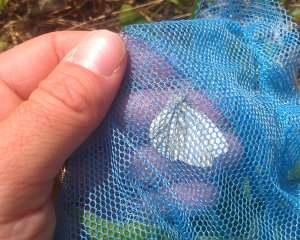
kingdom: Animalia
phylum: Arthropoda
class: Insecta
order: Lepidoptera
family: Pieridae
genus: Pieris
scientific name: Pieris oleracea
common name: Mustard White
